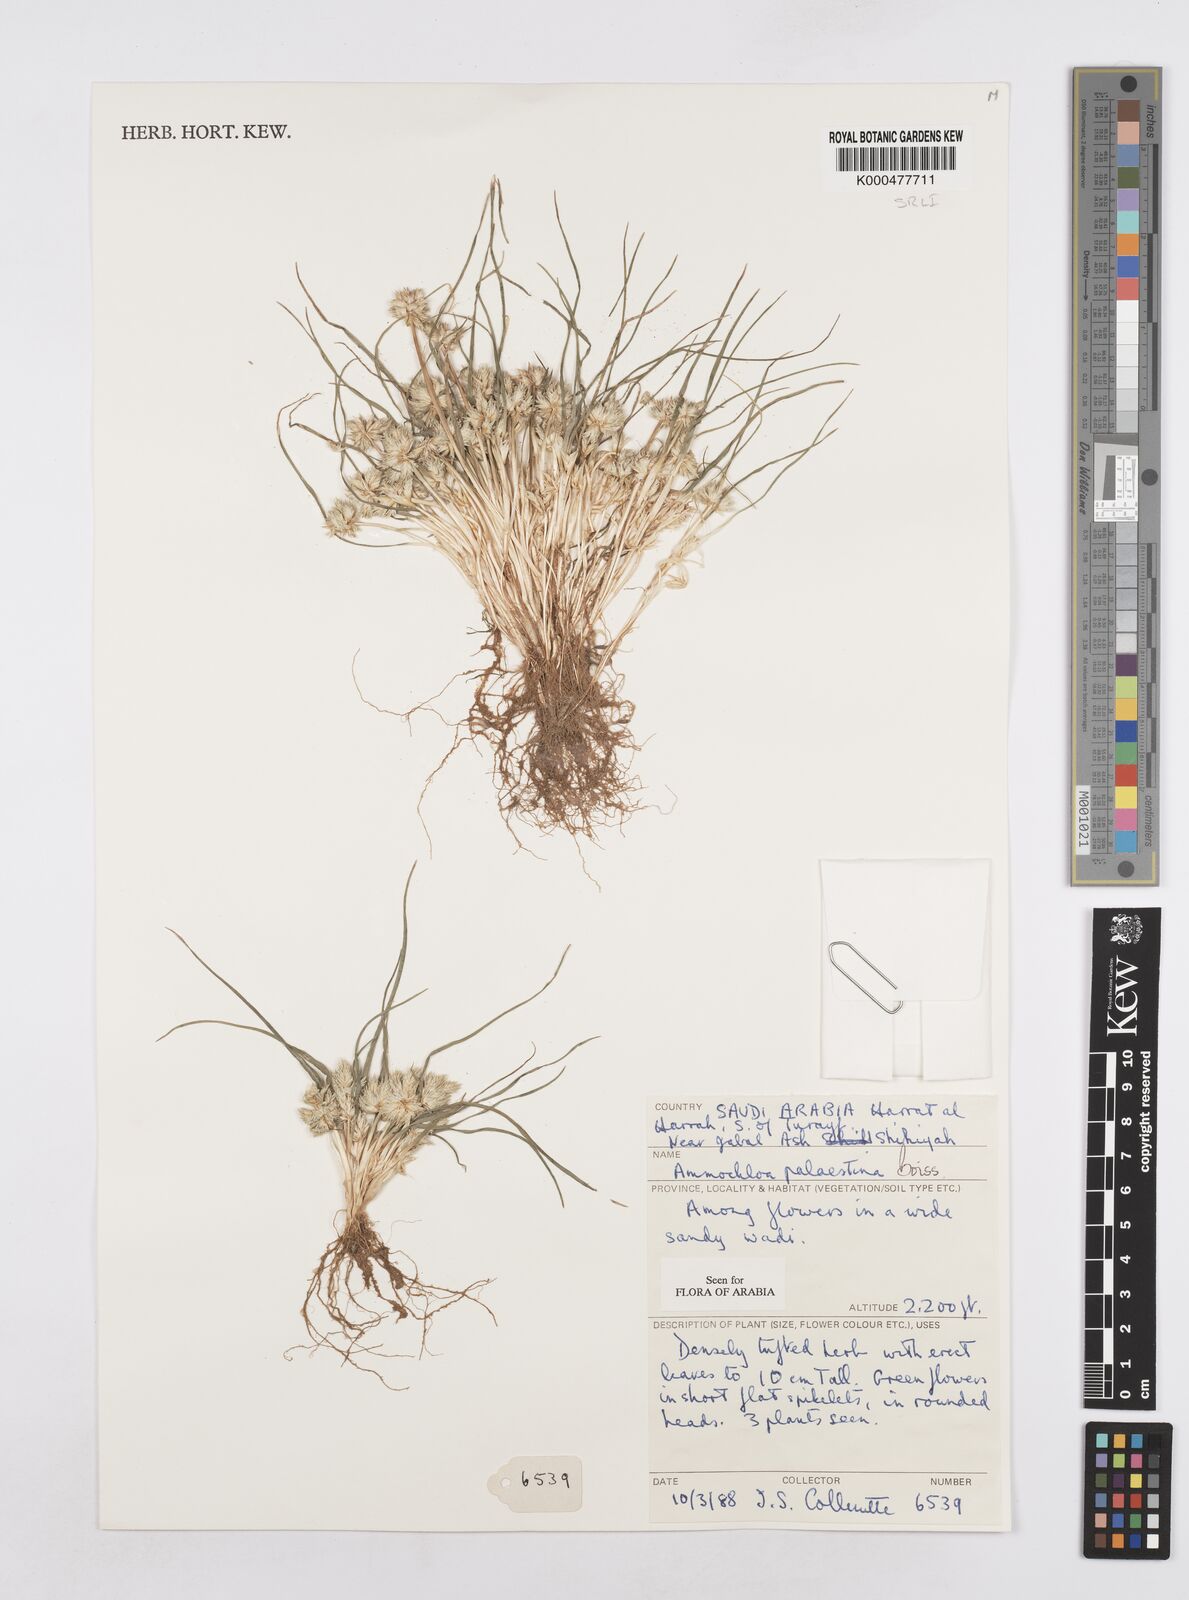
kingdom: Plantae
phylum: Tracheophyta
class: Liliopsida
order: Poales
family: Poaceae
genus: Ammochloa
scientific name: Ammochloa palaestina
